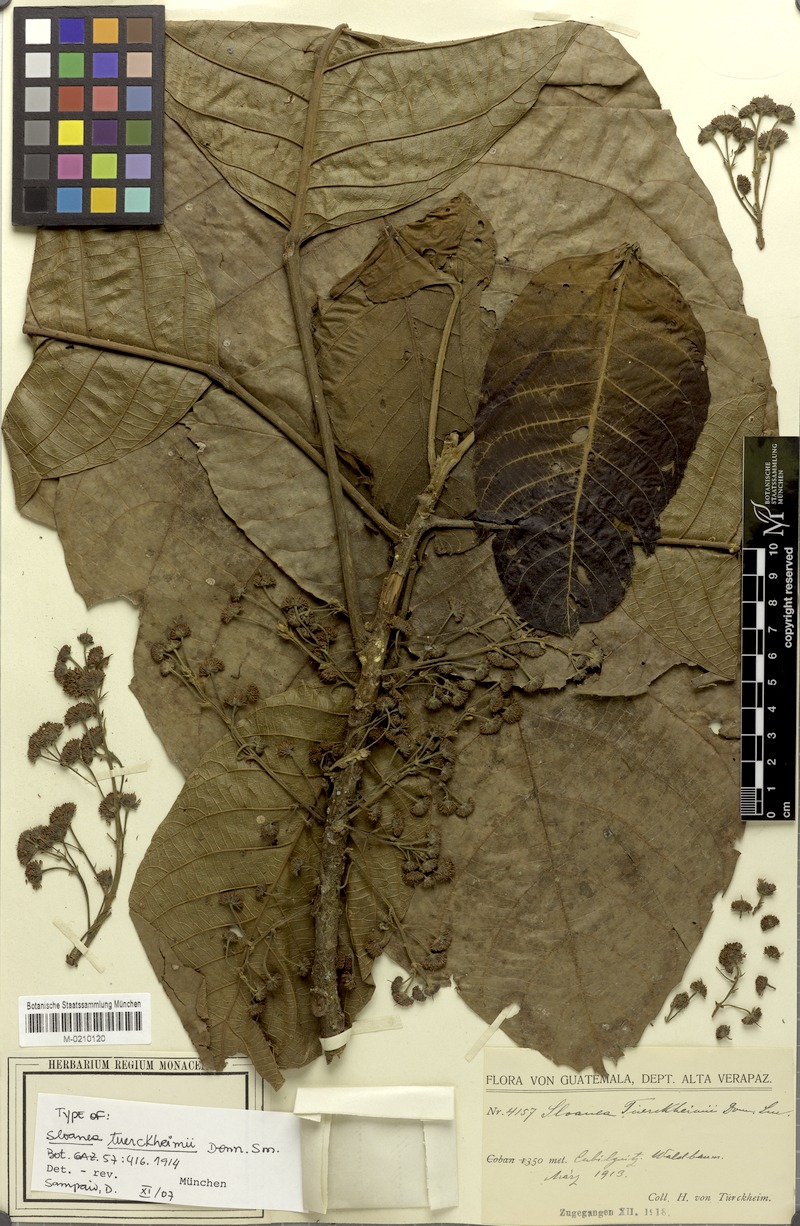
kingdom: Plantae
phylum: Tracheophyta
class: Magnoliopsida
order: Oxalidales
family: Elaeocarpaceae
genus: Sloanea
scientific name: Sloanea tuerckheimii
